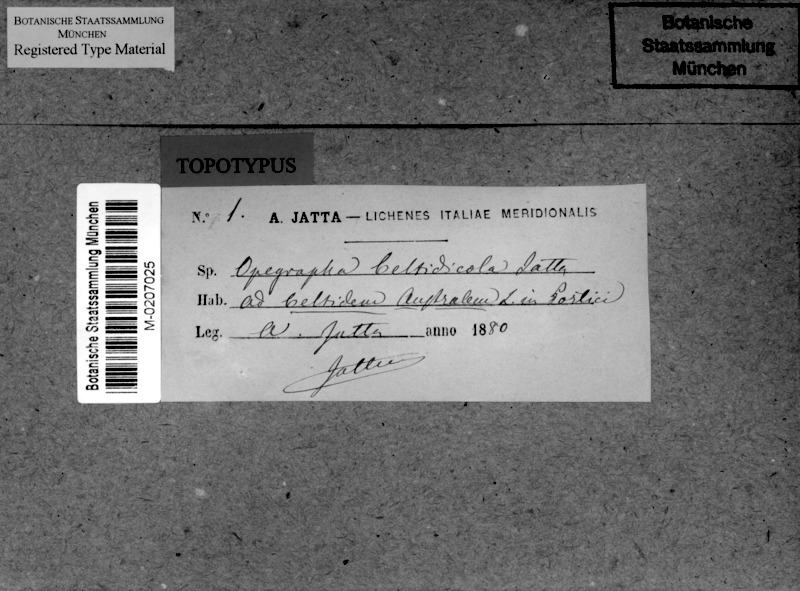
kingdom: Fungi
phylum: Ascomycota
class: Arthoniomycetes
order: Arthoniales
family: Opegraphaceae
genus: Opegrapha
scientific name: Opegrapha celtidicola
